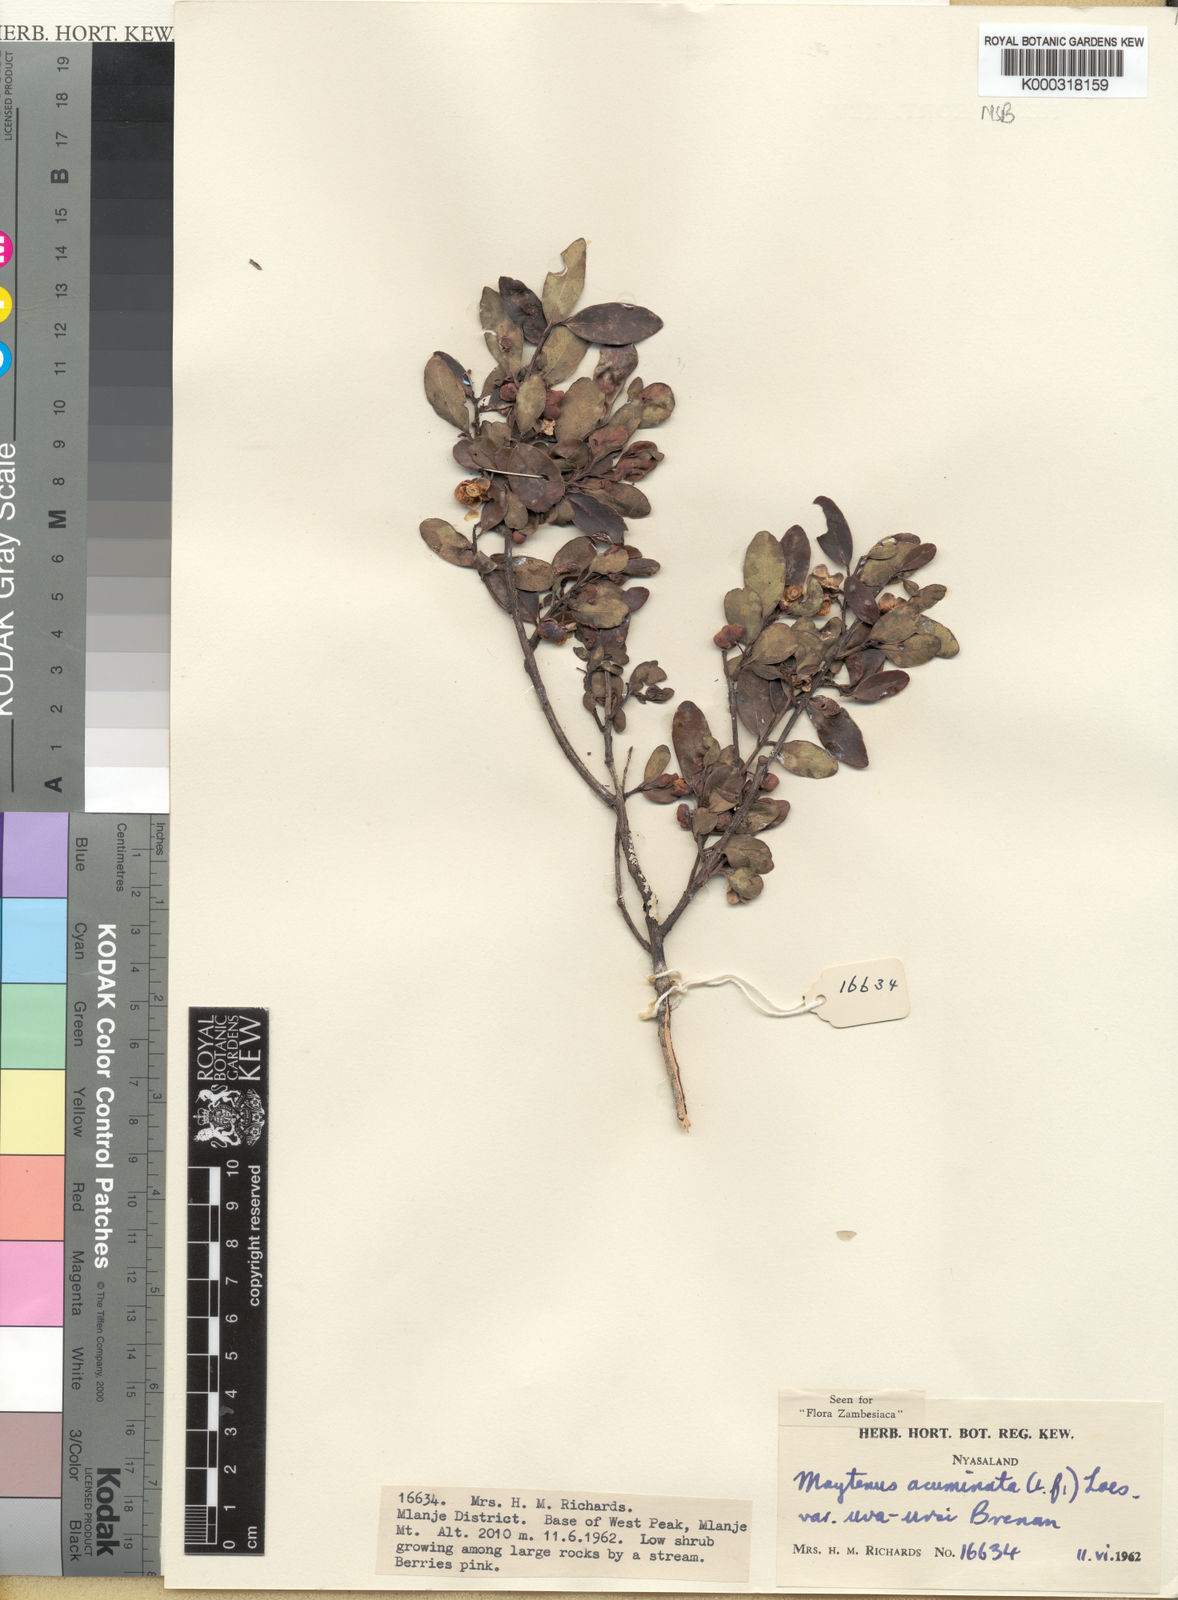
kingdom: Plantae
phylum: Tracheophyta
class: Magnoliopsida
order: Celastrales
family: Celastraceae
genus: Maytenus
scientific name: Maytenus
